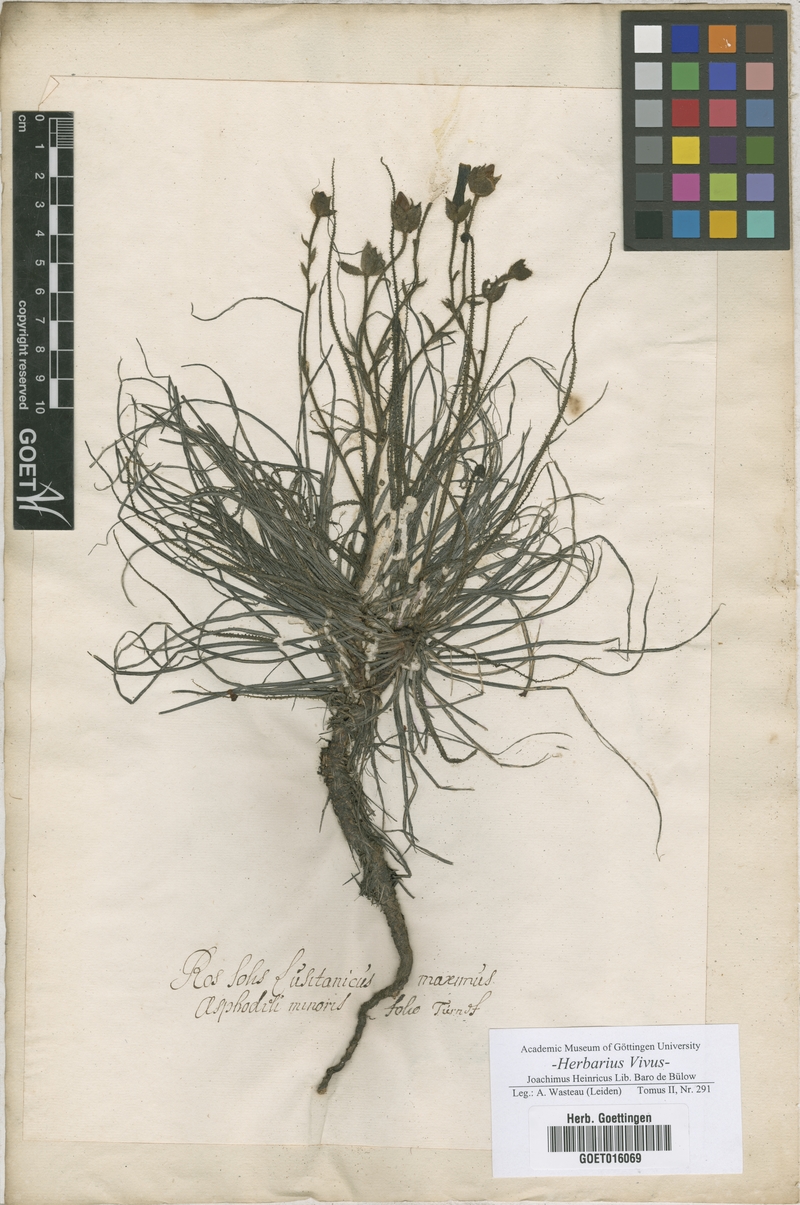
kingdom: Plantae
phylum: Tracheophyta
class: Liliopsida
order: Asparagales
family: Asphodelaceae
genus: Asphodelus
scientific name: Asphodelus lusitanicus
